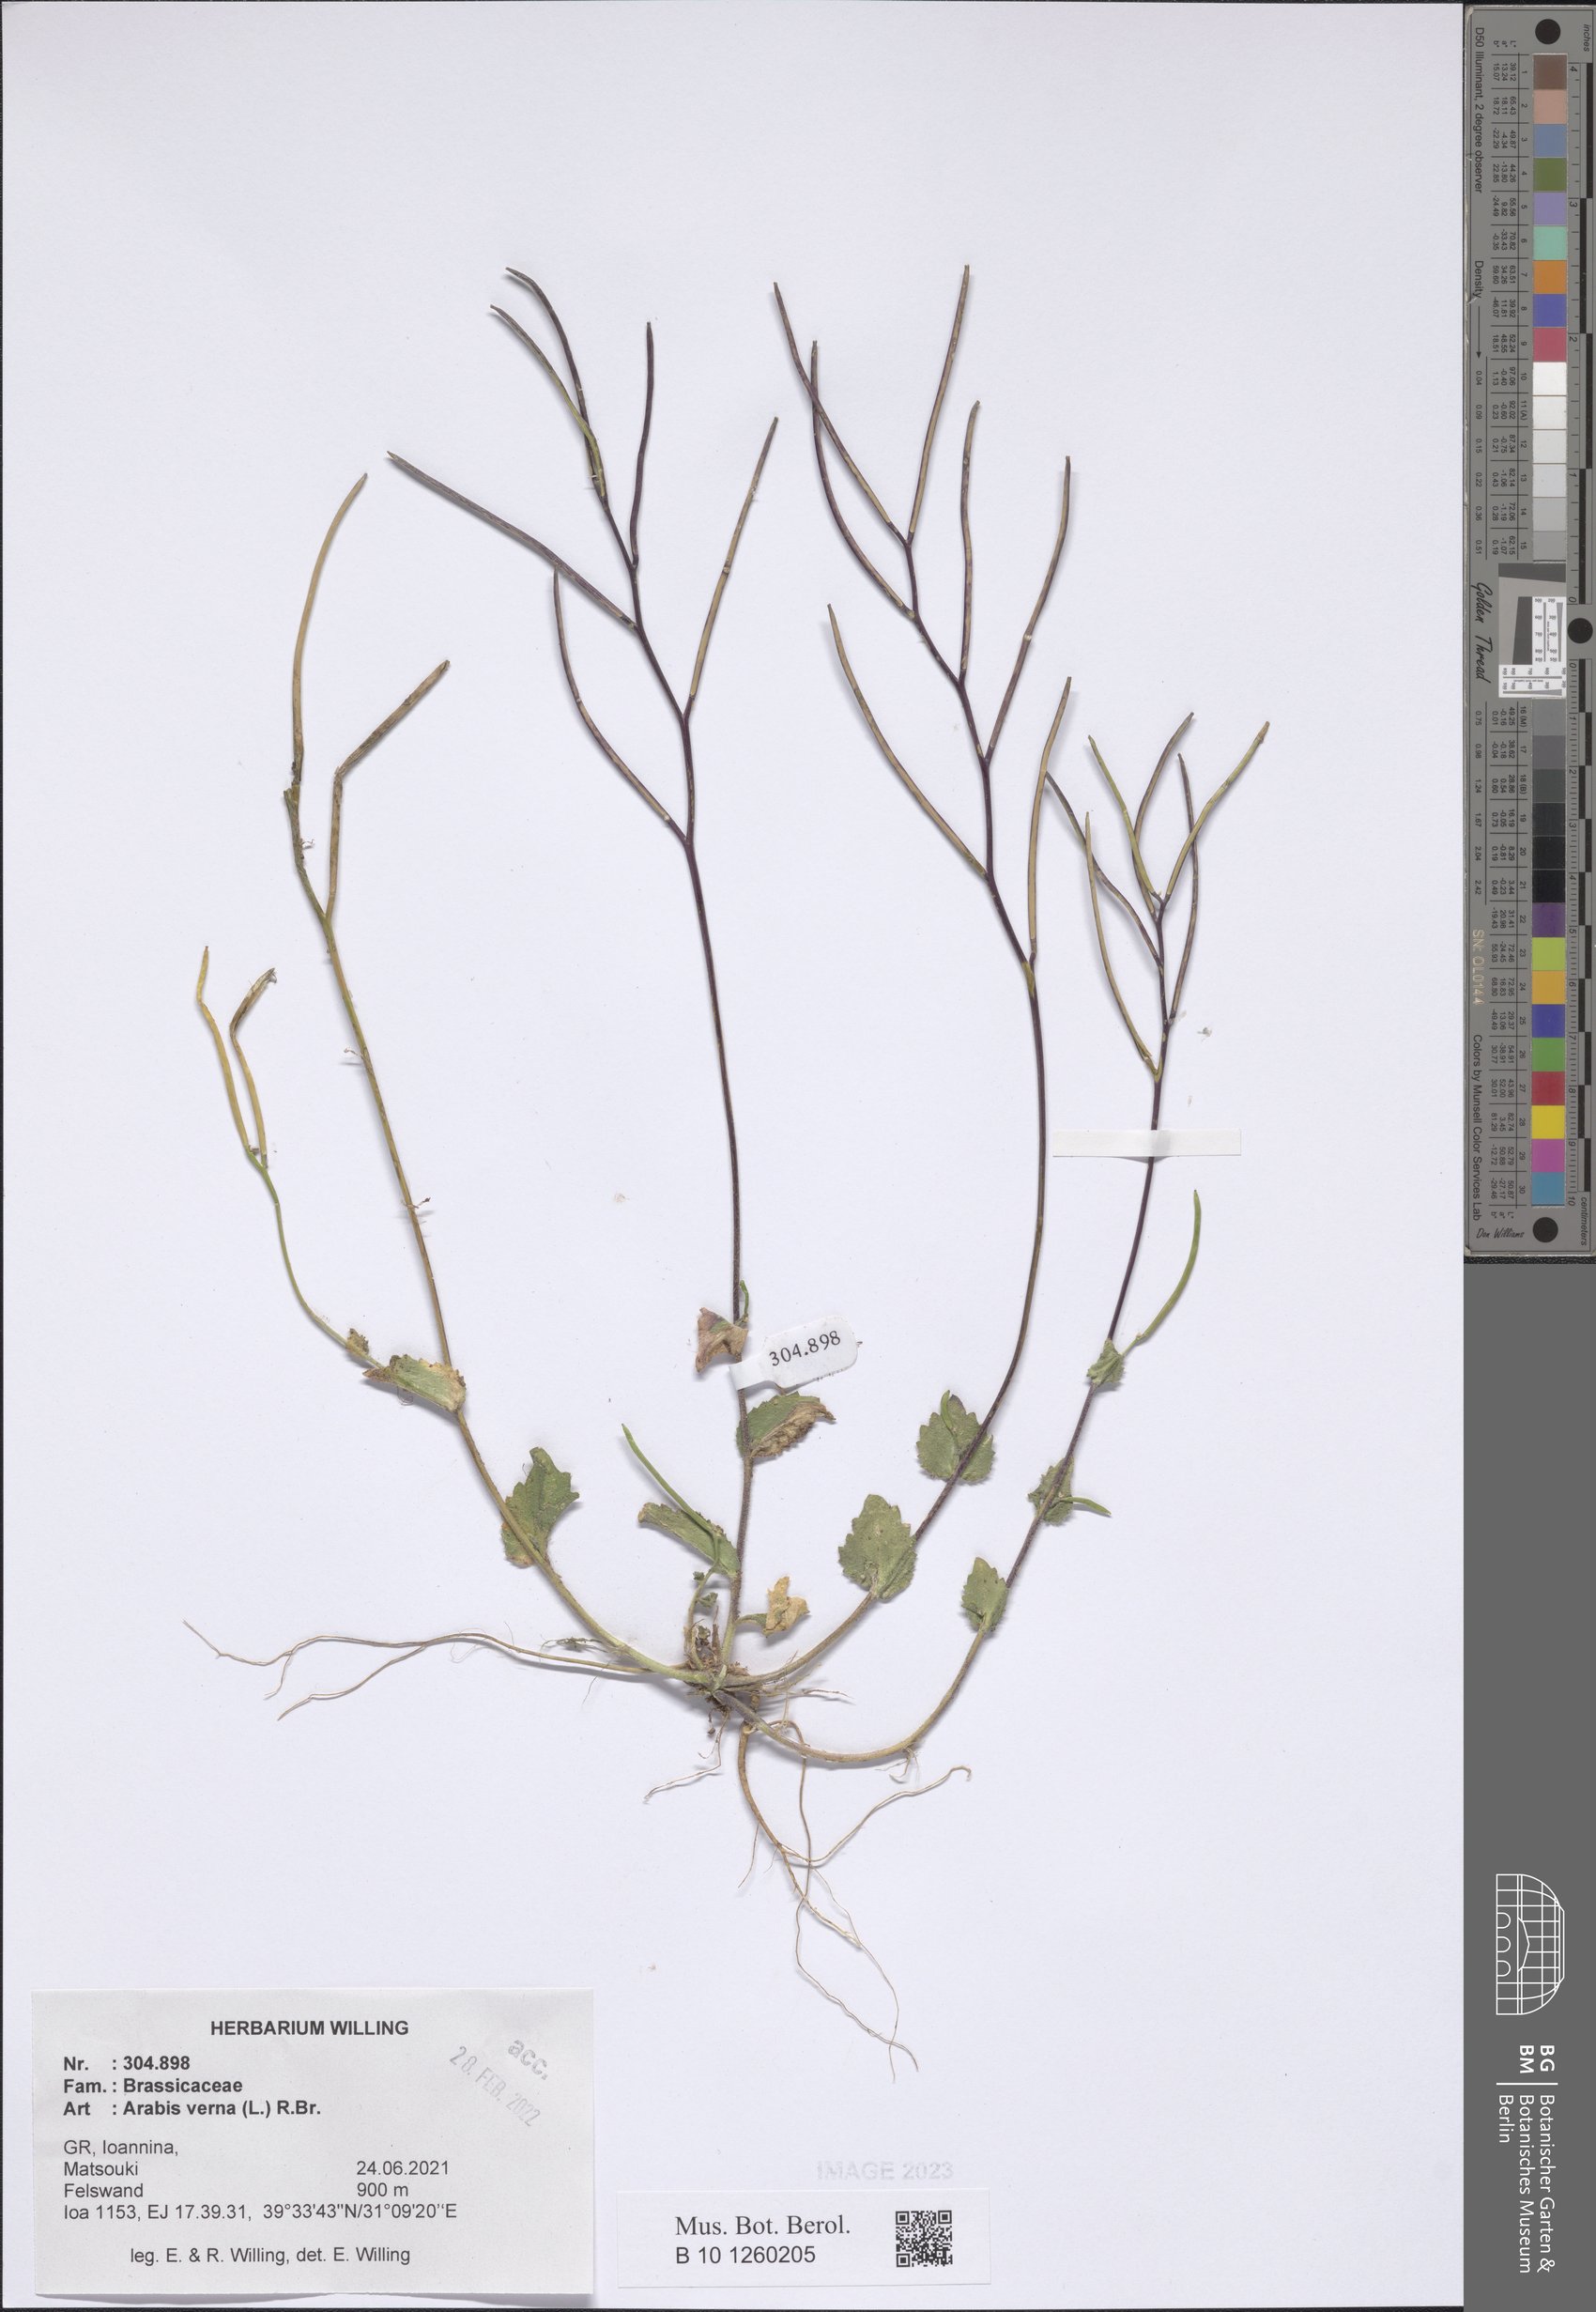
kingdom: Plantae
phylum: Tracheophyta
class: Magnoliopsida
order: Brassicales
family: Brassicaceae
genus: Arabis
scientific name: Arabis verna
